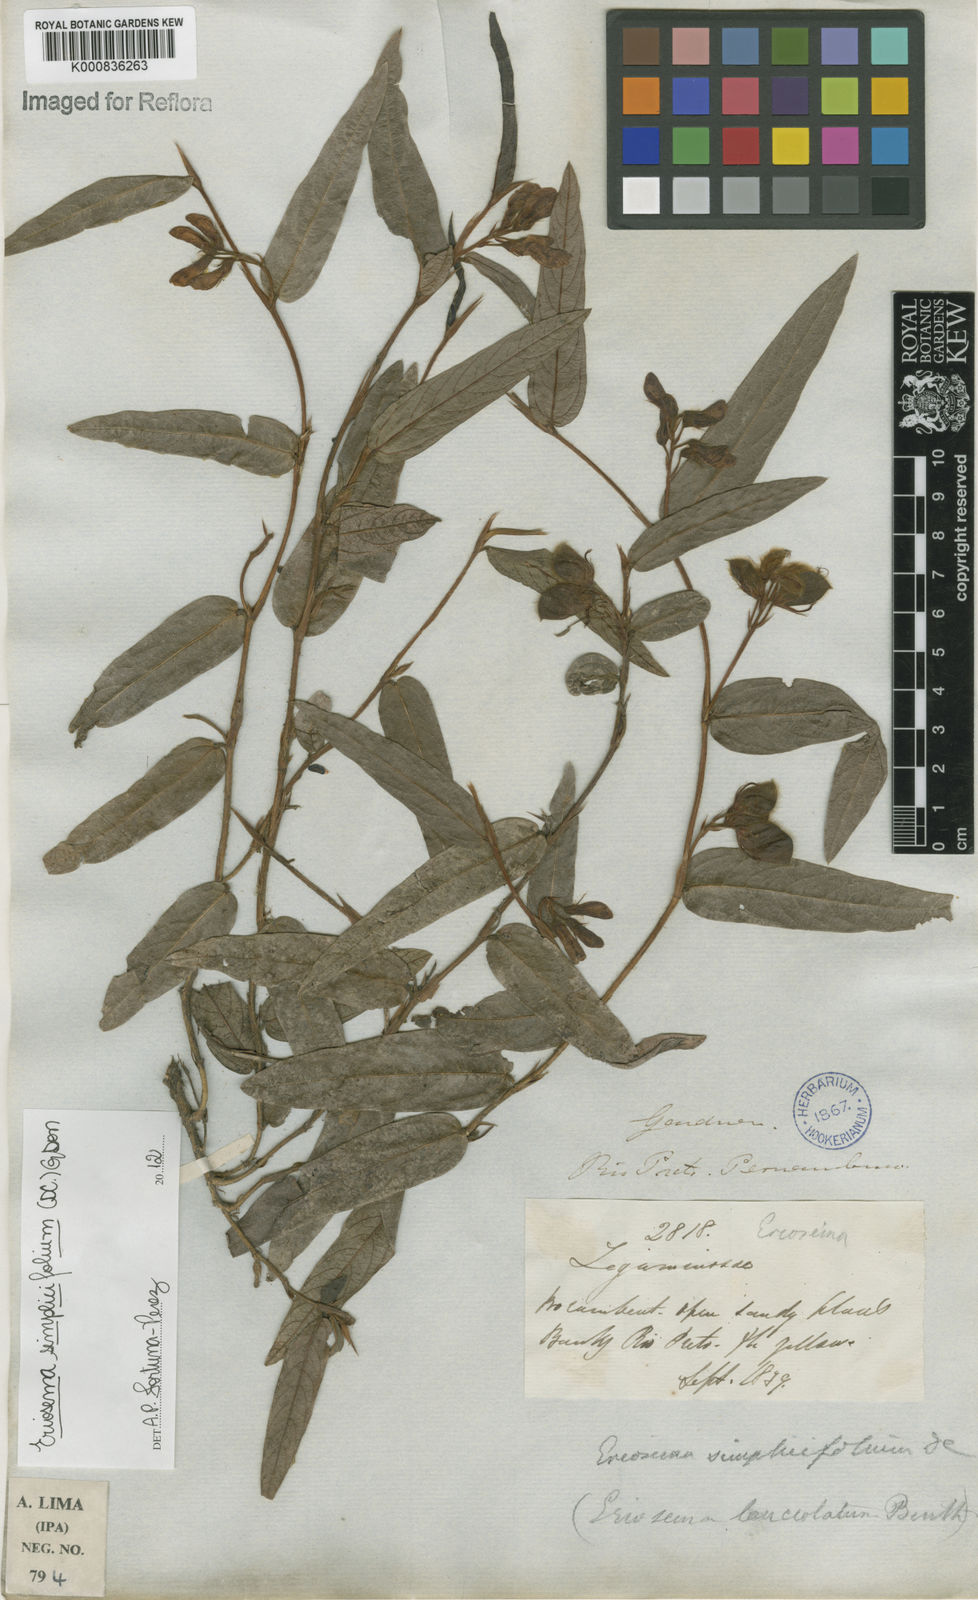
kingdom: Plantae
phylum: Tracheophyta
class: Magnoliopsida
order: Fabales
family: Fabaceae
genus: Eriosema
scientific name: Eriosema simplicifolium
